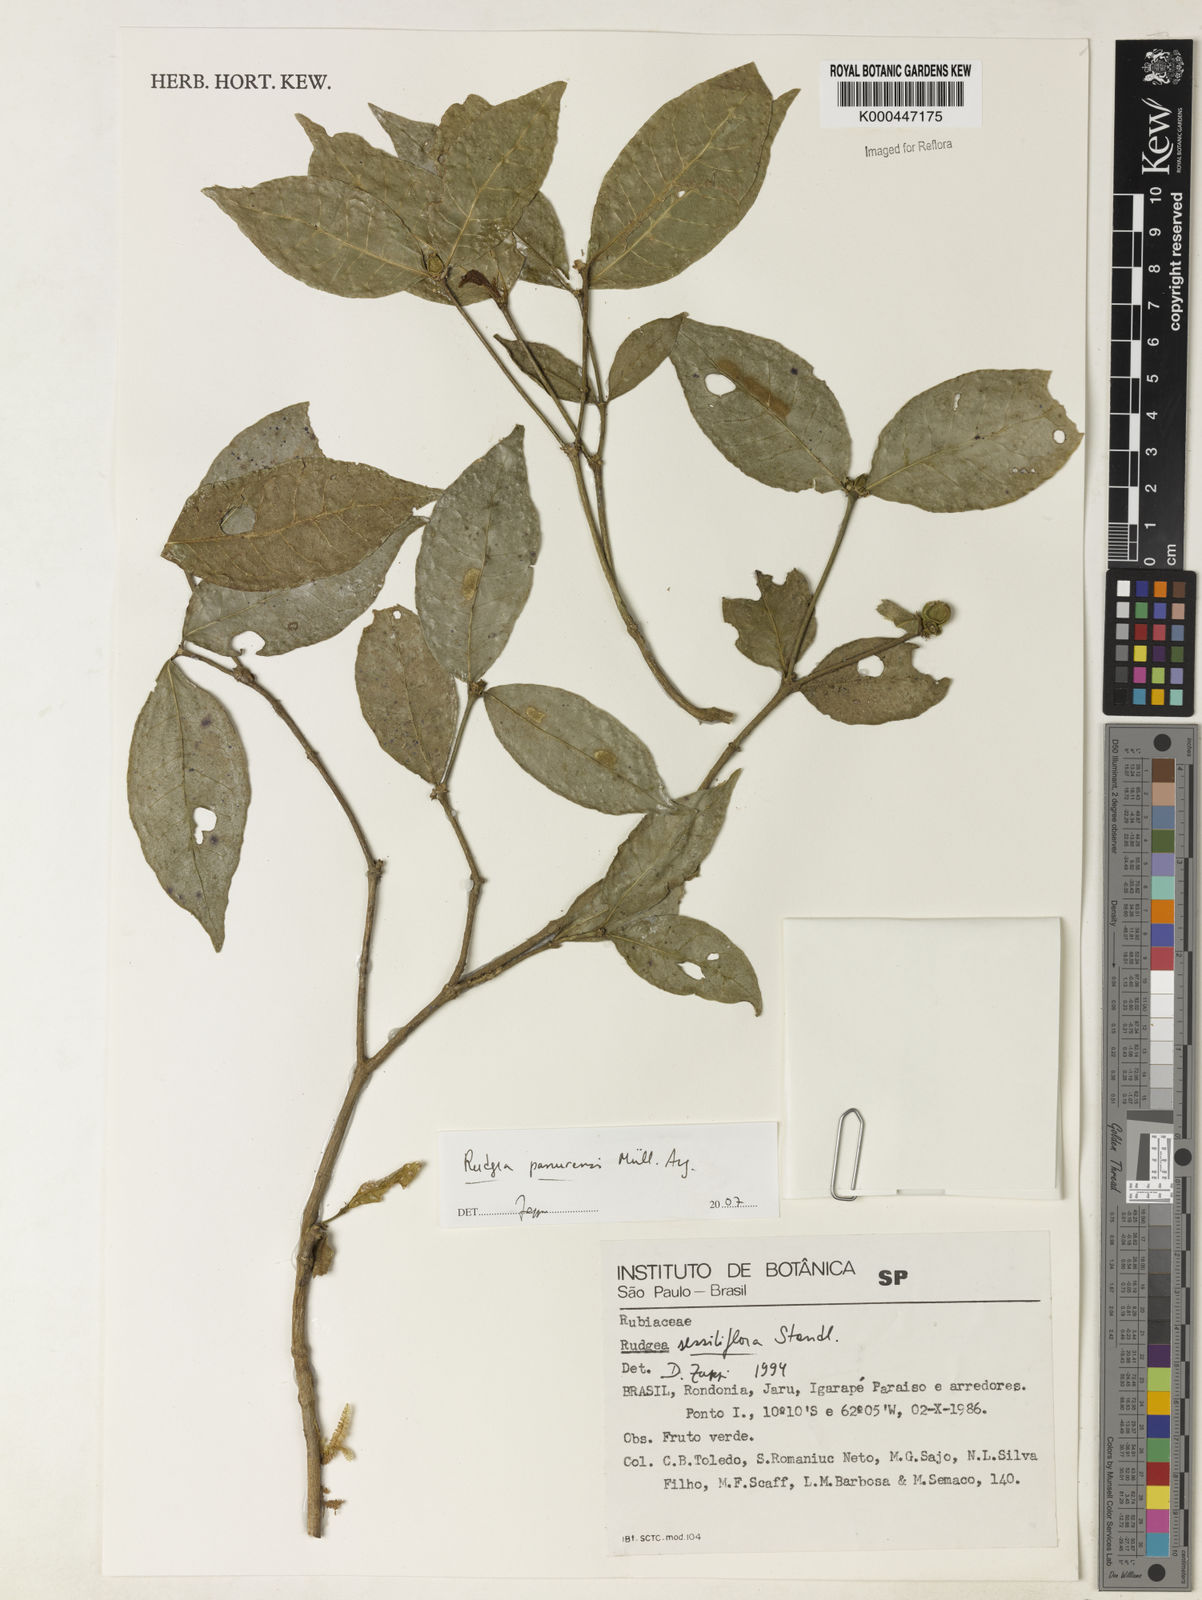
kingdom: Plantae
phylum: Tracheophyta
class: Magnoliopsida
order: Gentianales
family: Rubiaceae
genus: Rudgea
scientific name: Rudgea panurensis
